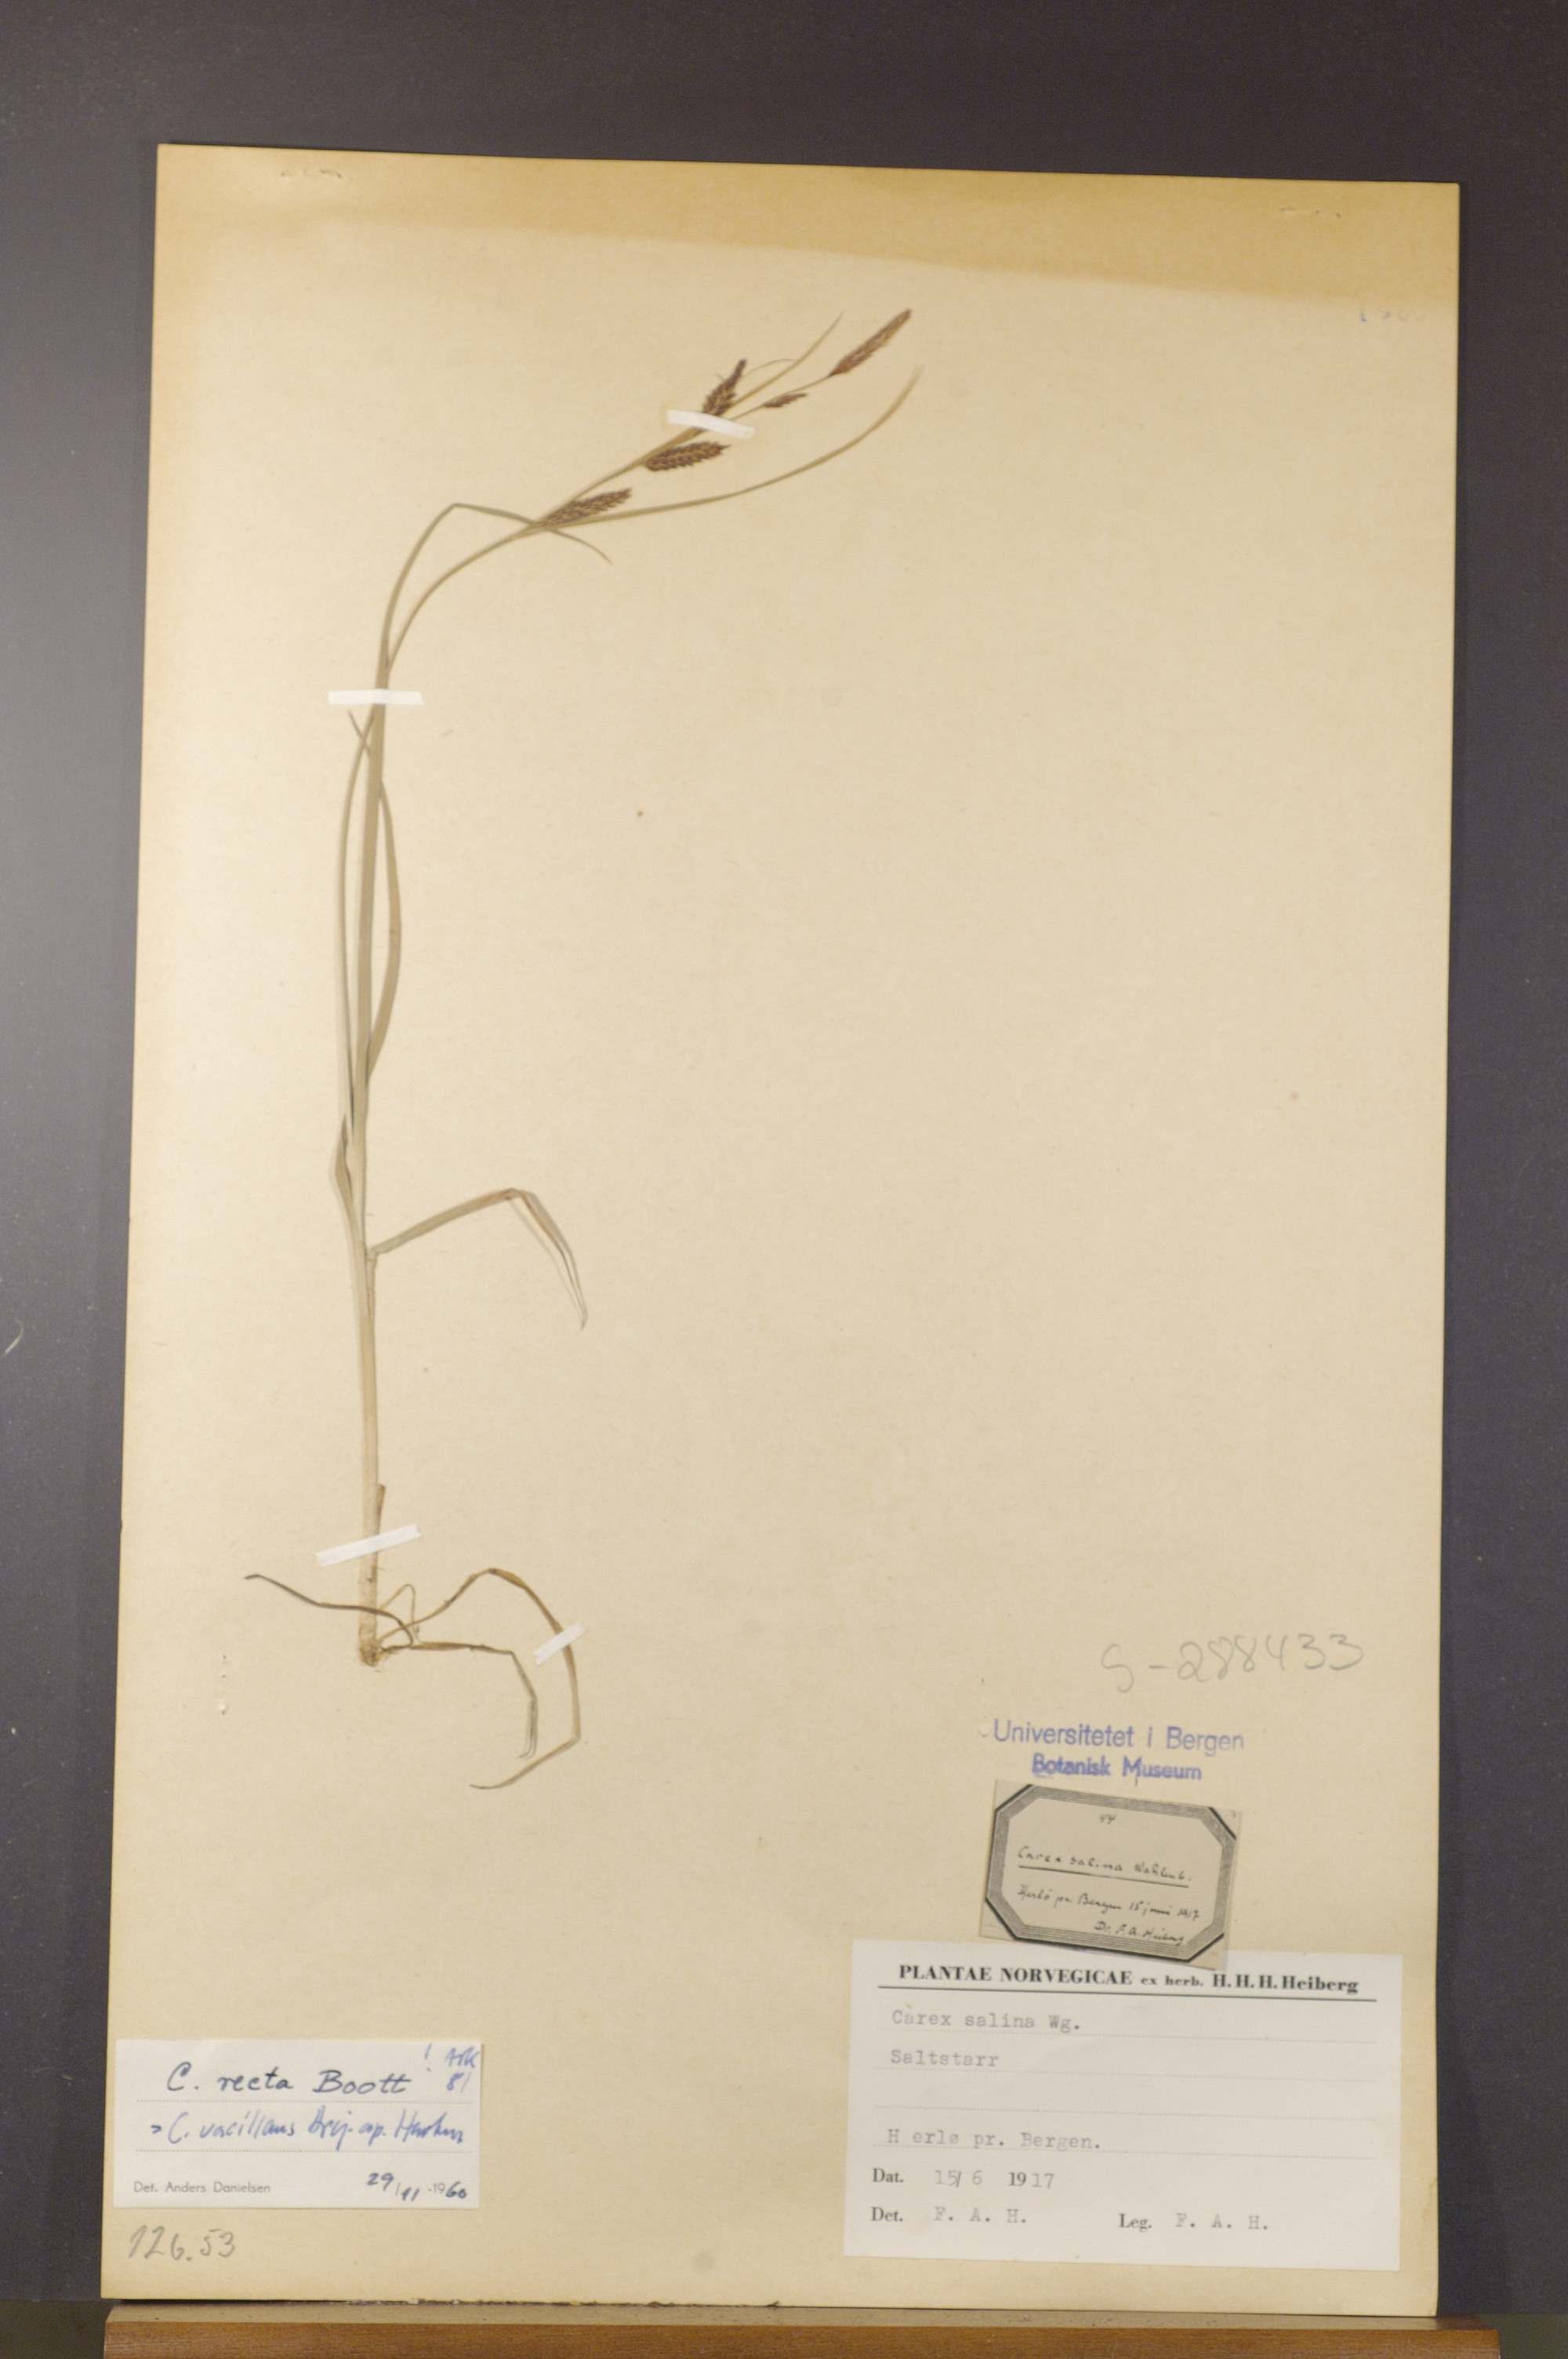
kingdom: Plantae
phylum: Tracheophyta
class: Liliopsida
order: Poales
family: Cyperaceae
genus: Carex
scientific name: Carex vacillans
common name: Sedge
